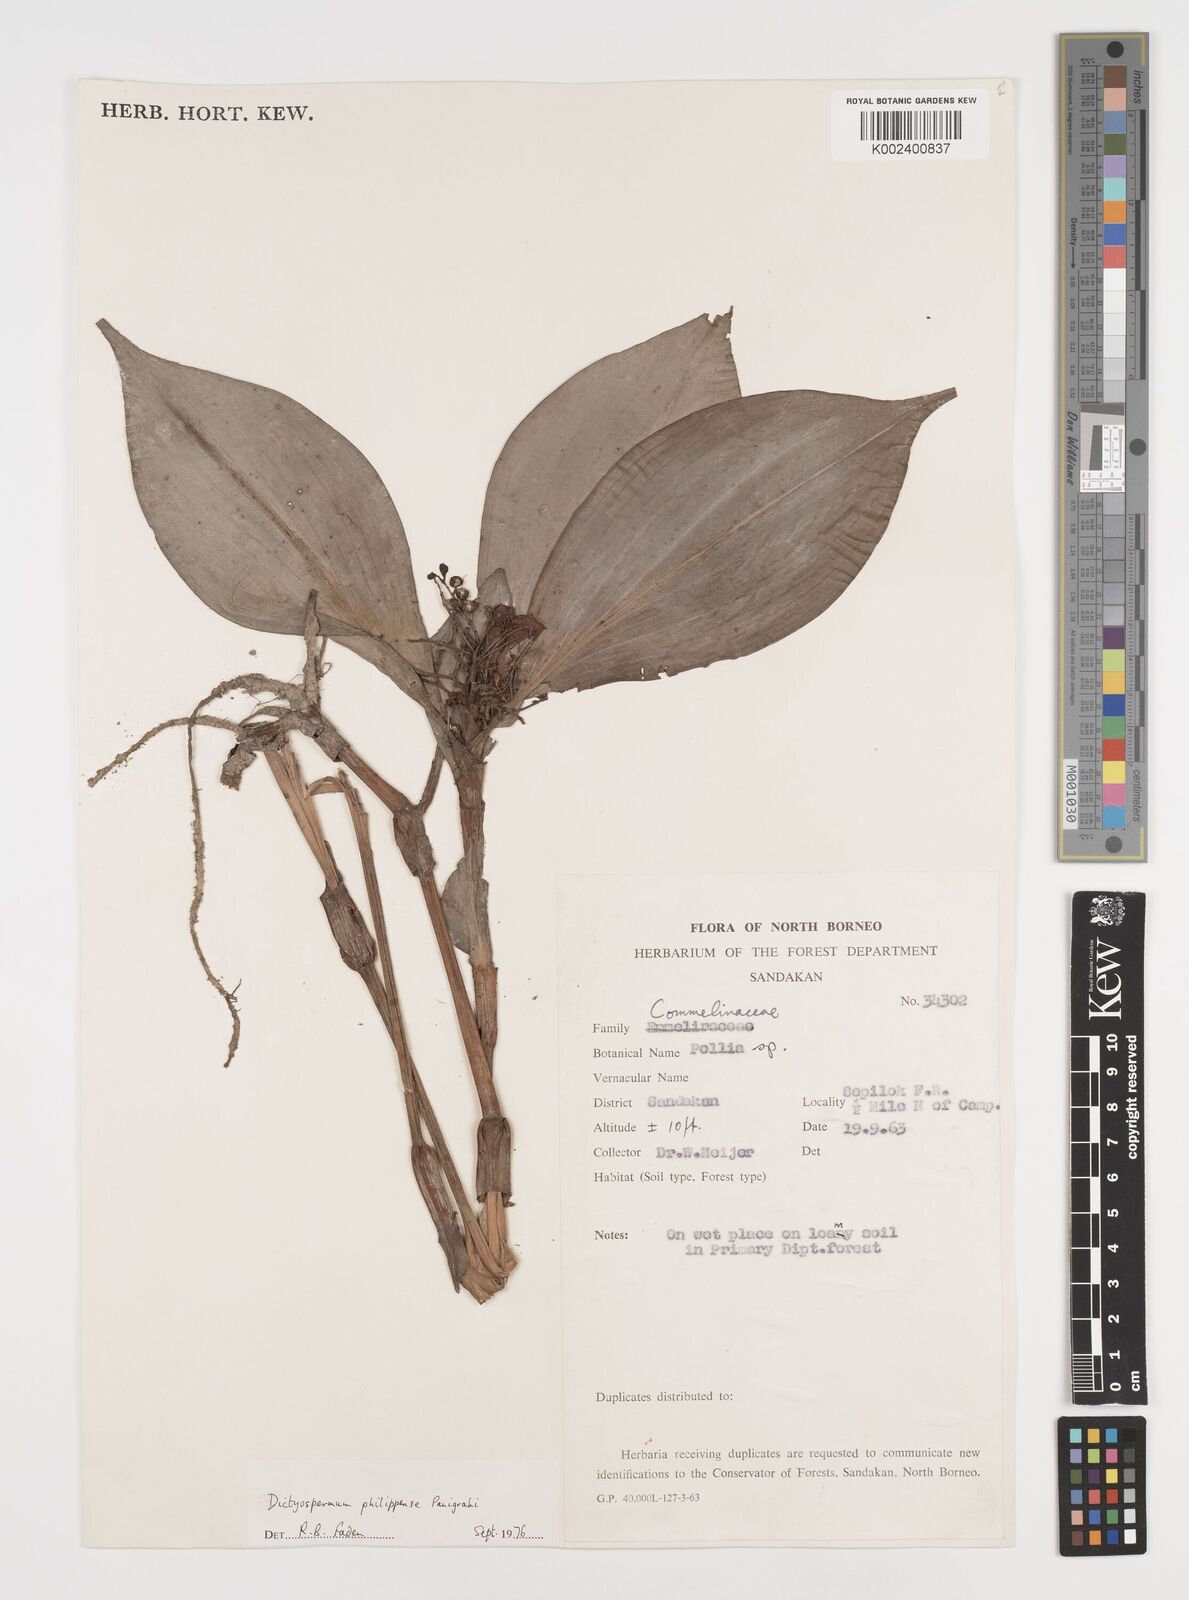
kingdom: Plantae
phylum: Tracheophyta
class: Liliopsida
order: Commelinales
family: Commelinaceae
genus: Tricarpelema
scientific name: Tricarpelema philippense
